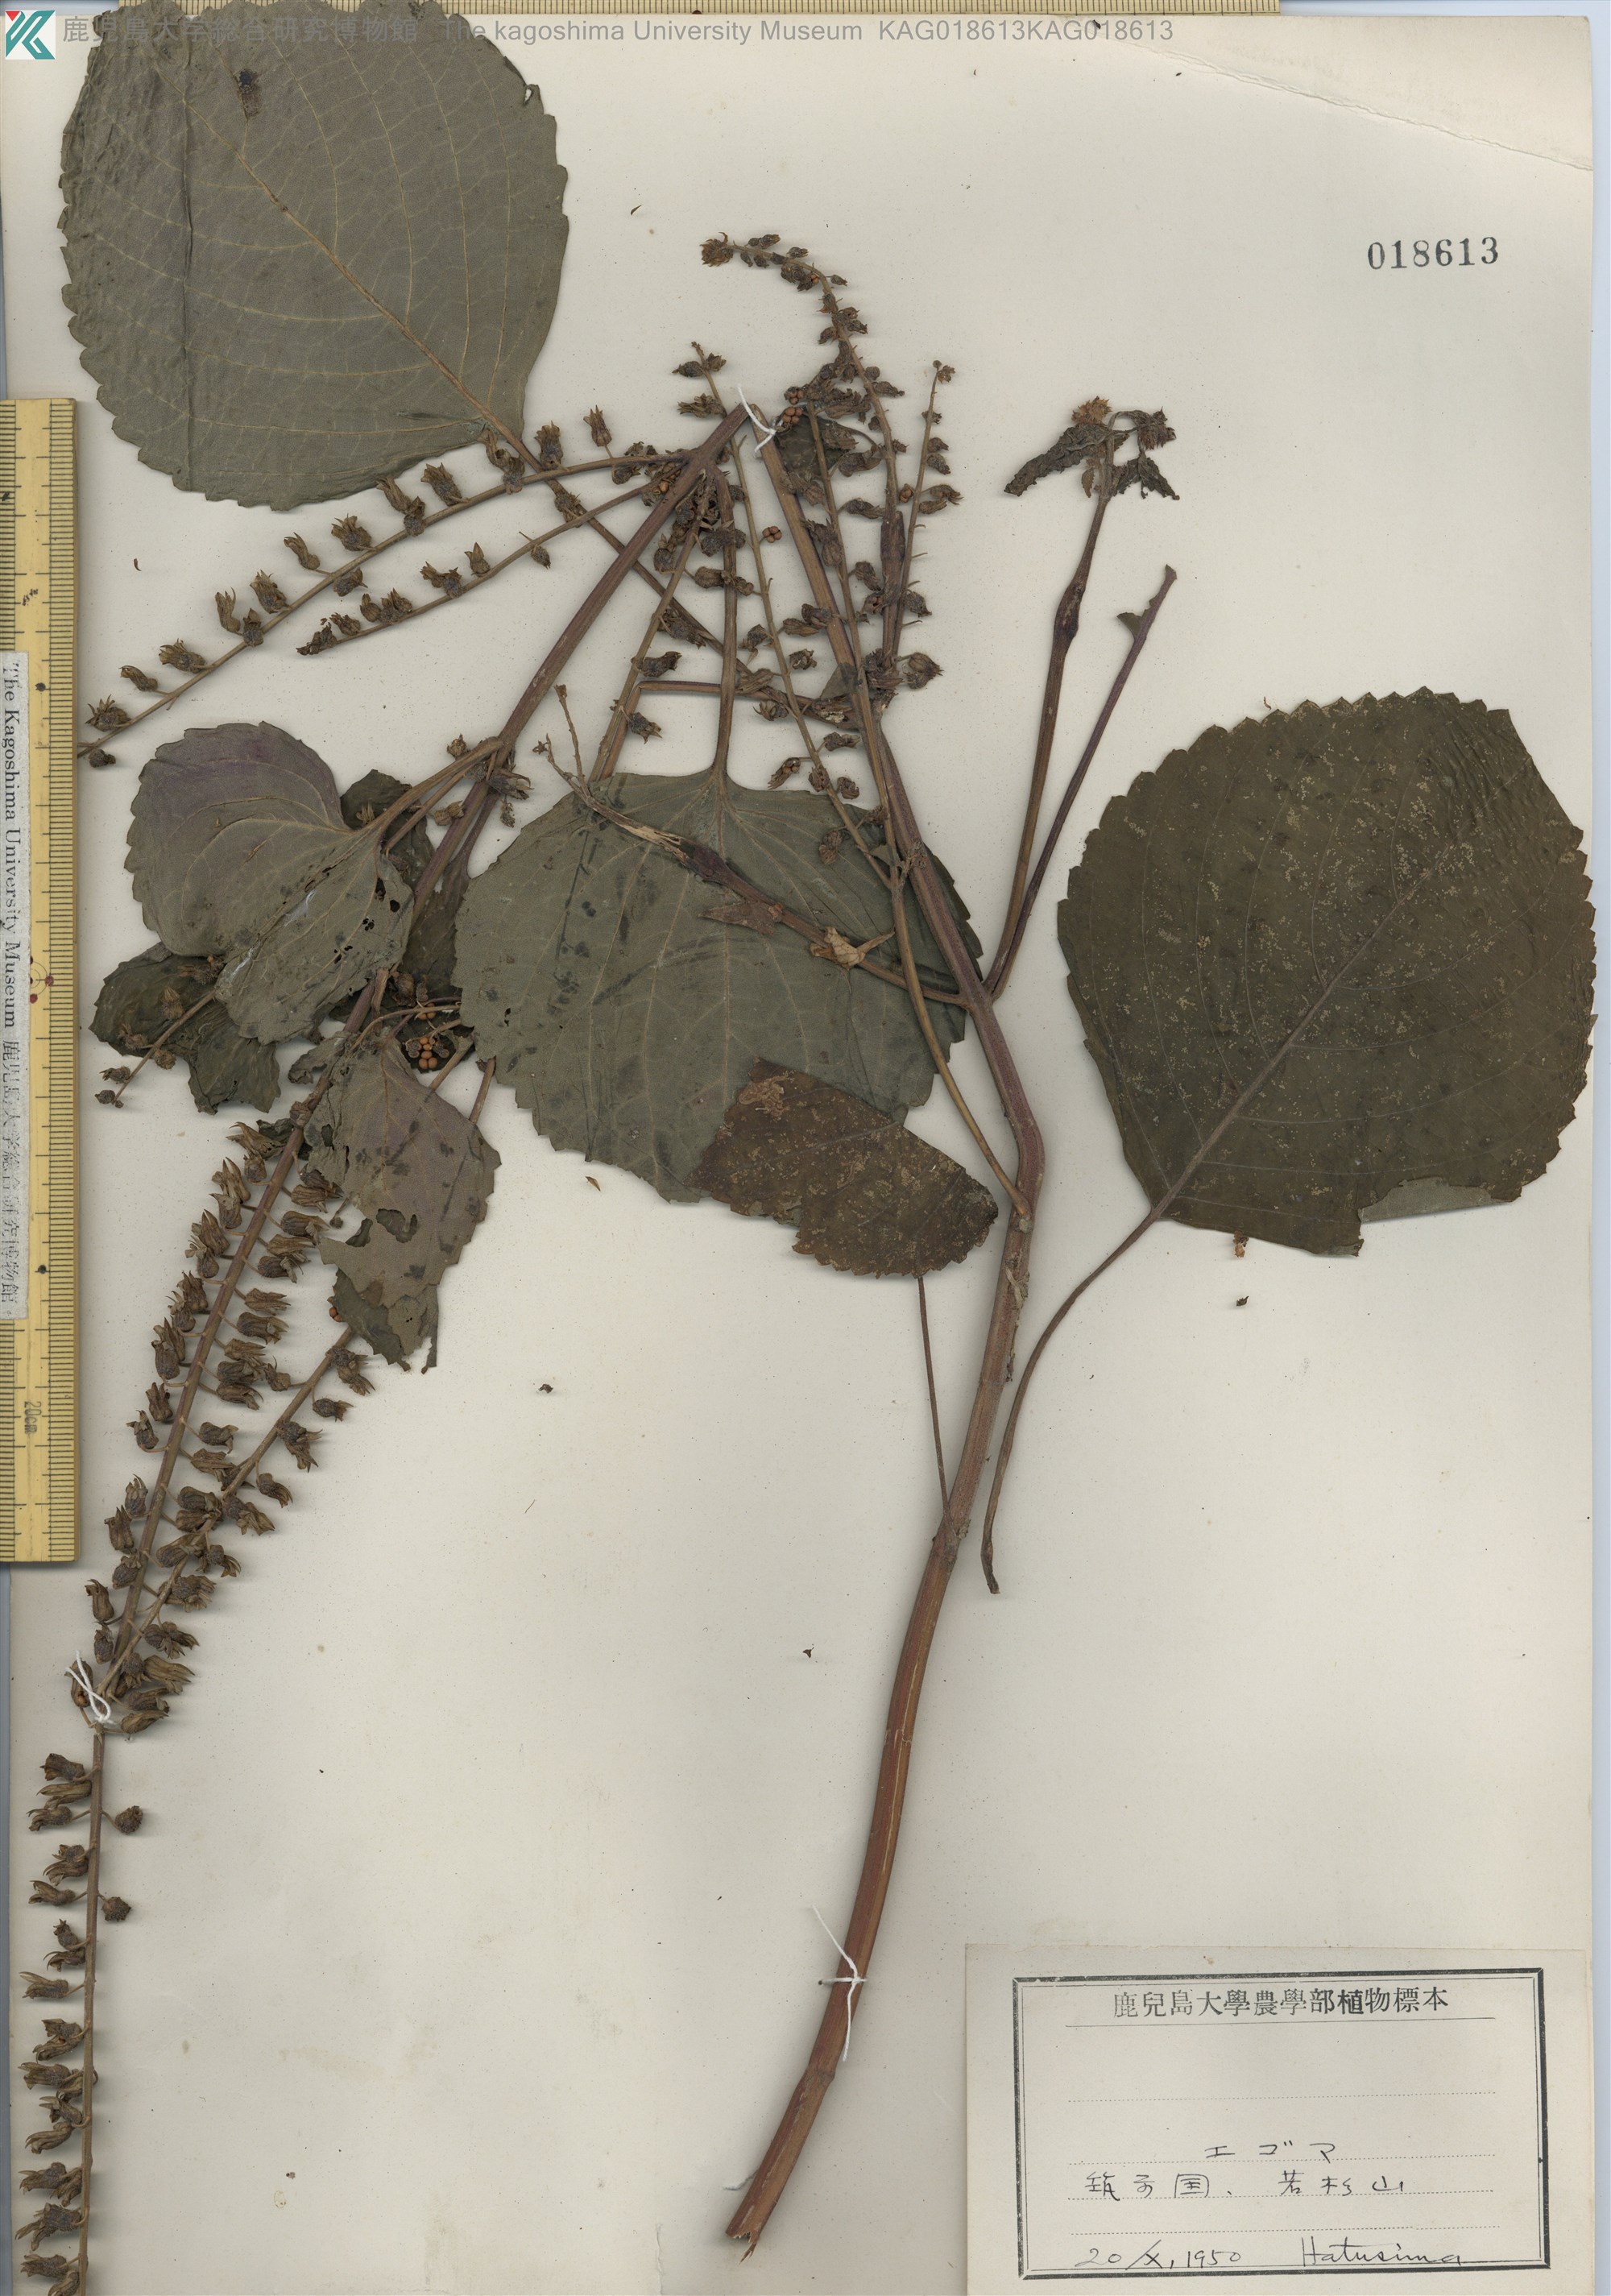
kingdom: Plantae
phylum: Tracheophyta
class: Magnoliopsida
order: Lamiales
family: Lamiaceae
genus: Perilla
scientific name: Perilla frutescens
